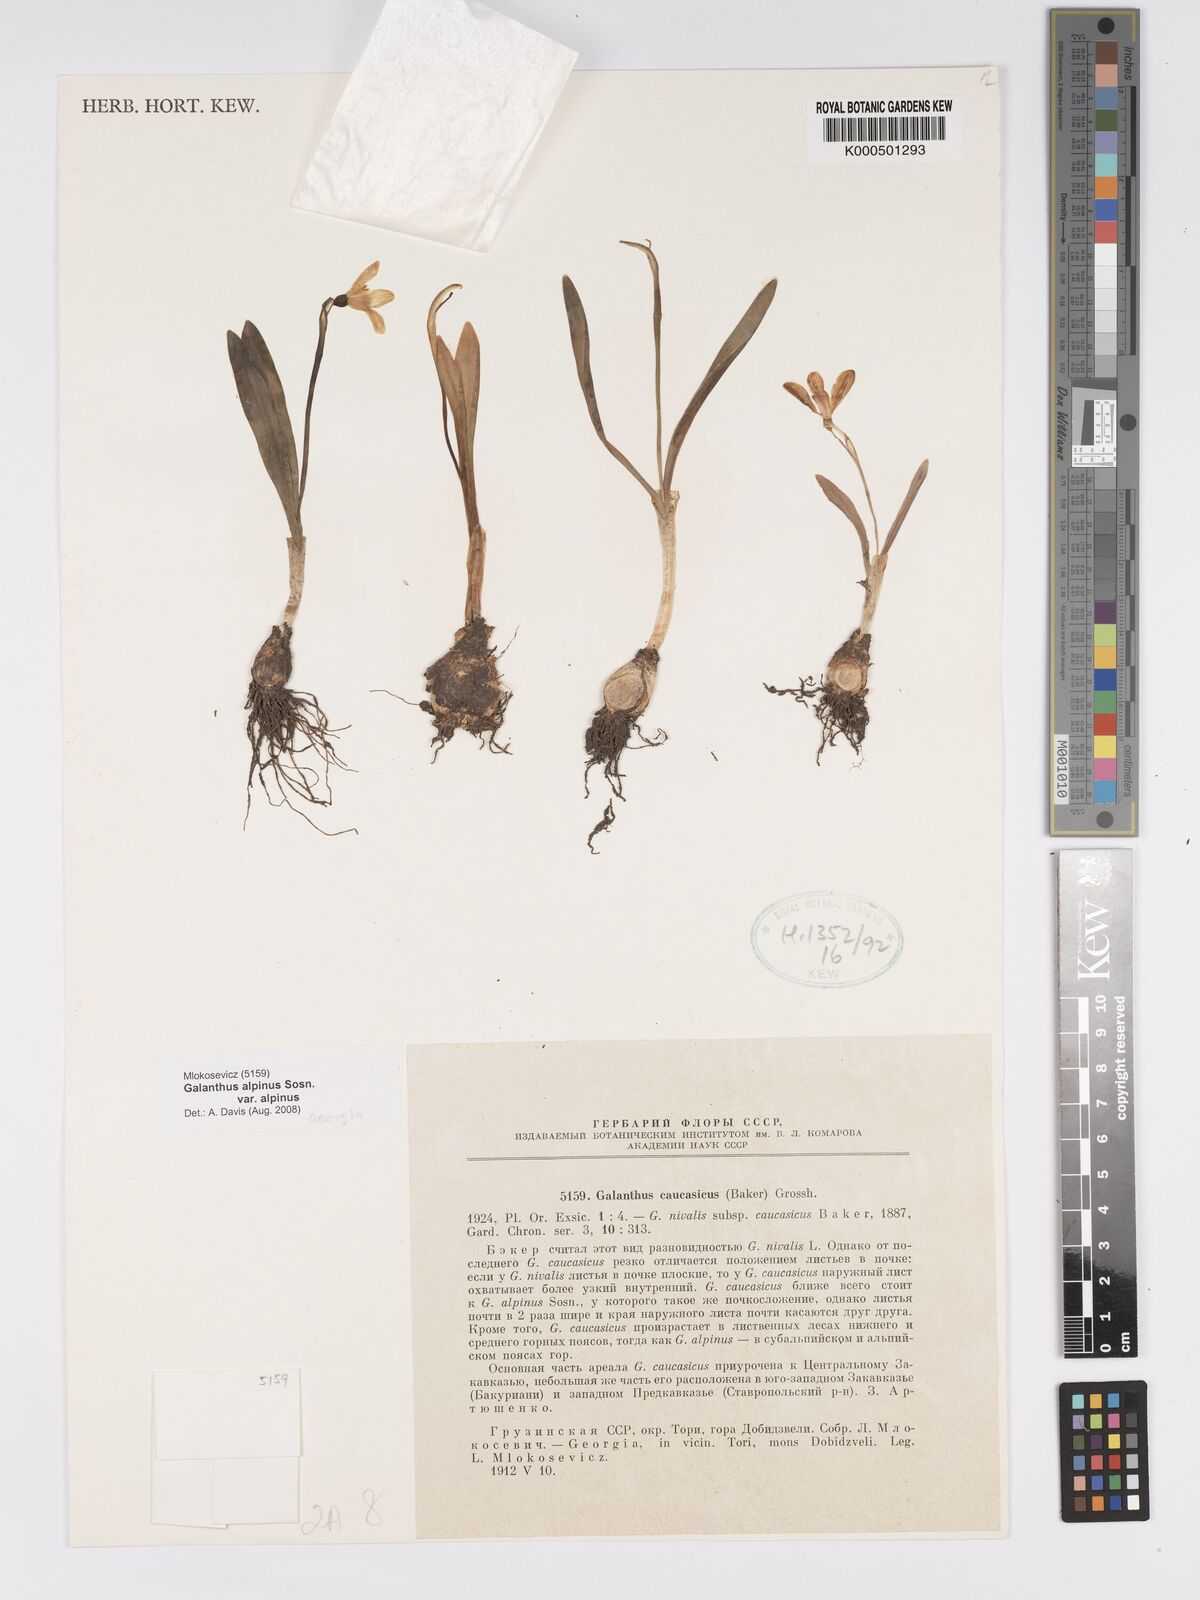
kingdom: Plantae
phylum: Tracheophyta
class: Liliopsida
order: Asparagales
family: Amaryllidaceae
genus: Galanthus
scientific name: Galanthus alpinus
